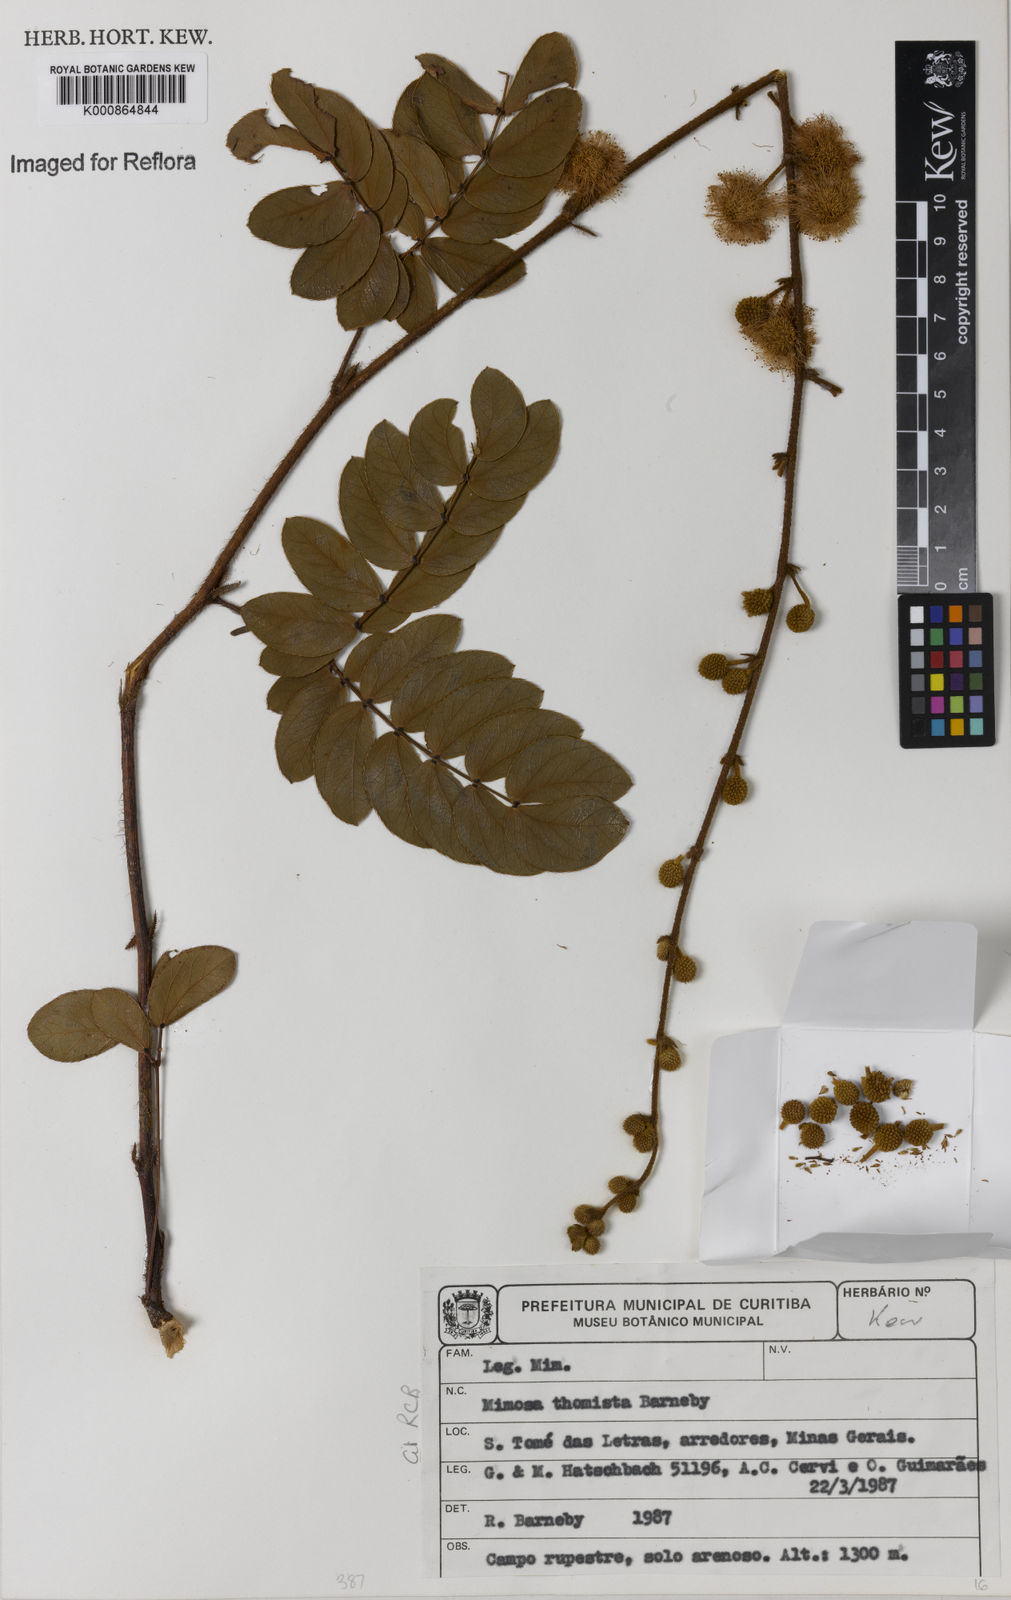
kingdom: Plantae
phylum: Tracheophyta
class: Magnoliopsida
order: Fabales
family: Fabaceae
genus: Mimosa
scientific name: Mimosa
